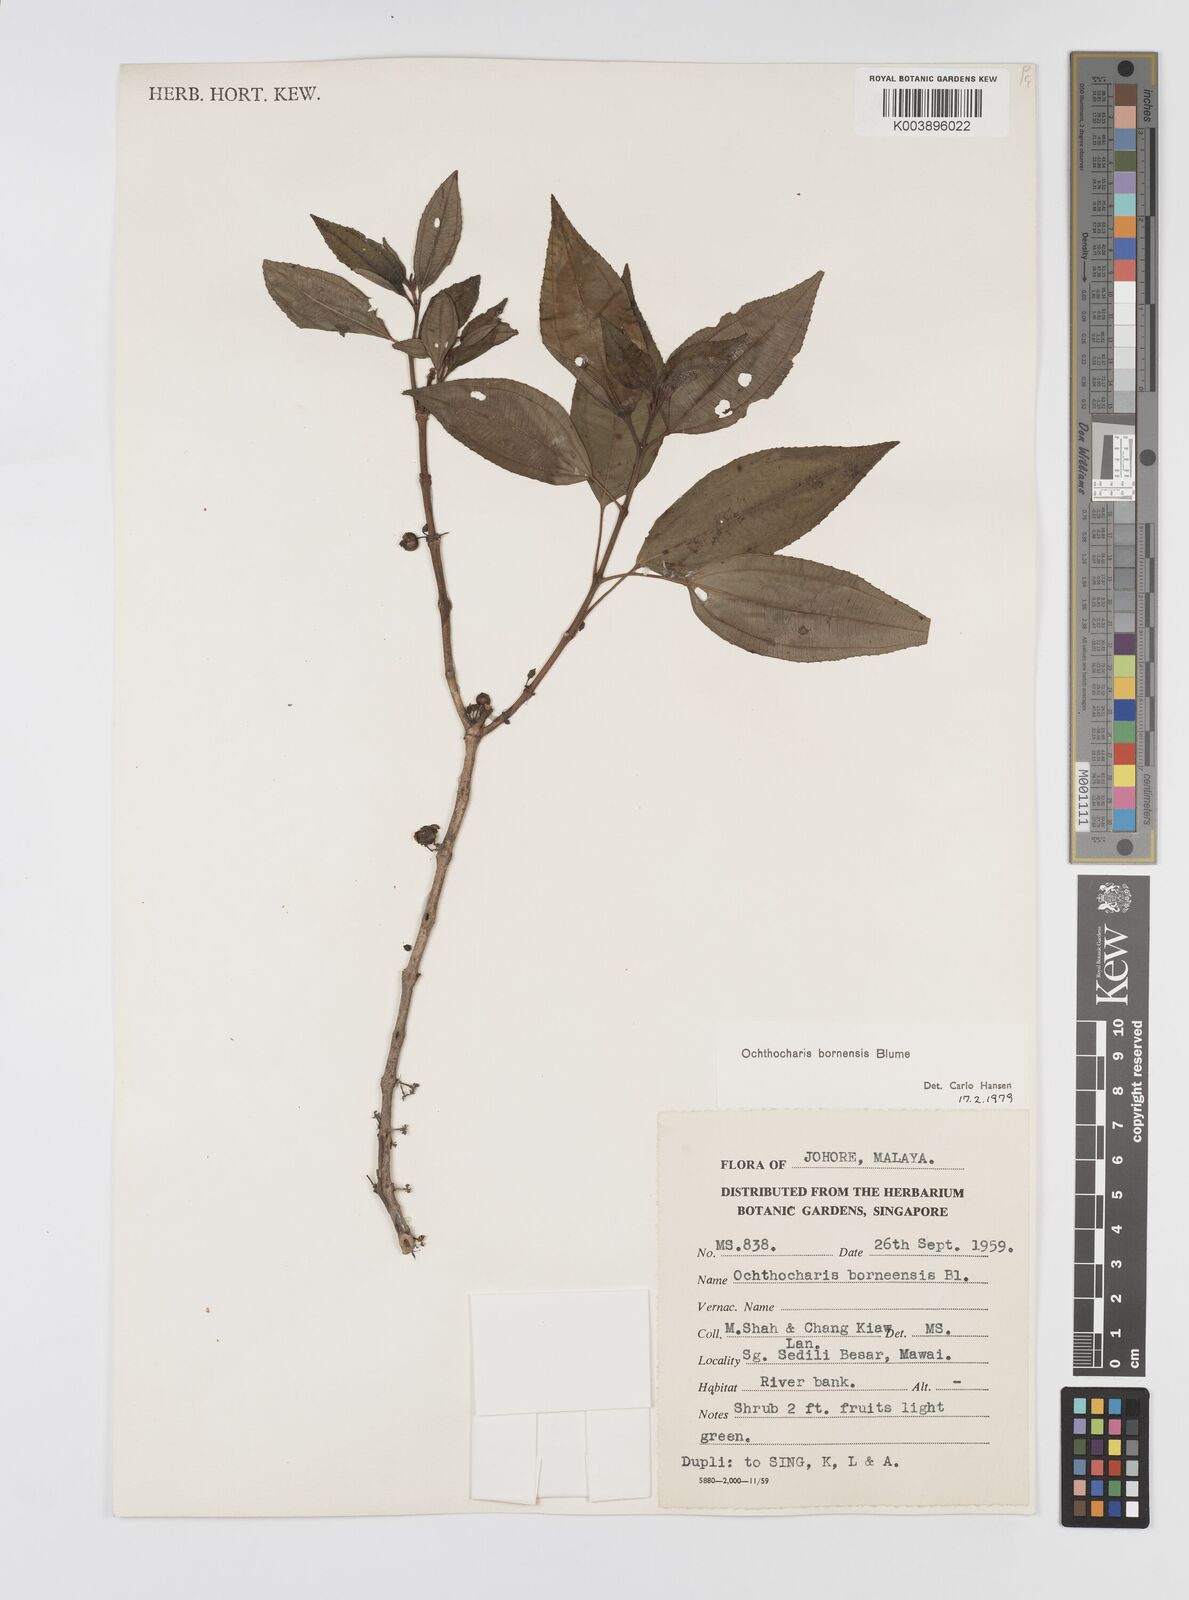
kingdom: Plantae
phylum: Tracheophyta
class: Magnoliopsida
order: Myrtales
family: Melastomataceae
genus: Ochthocharis
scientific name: Ochthocharis bornensis
